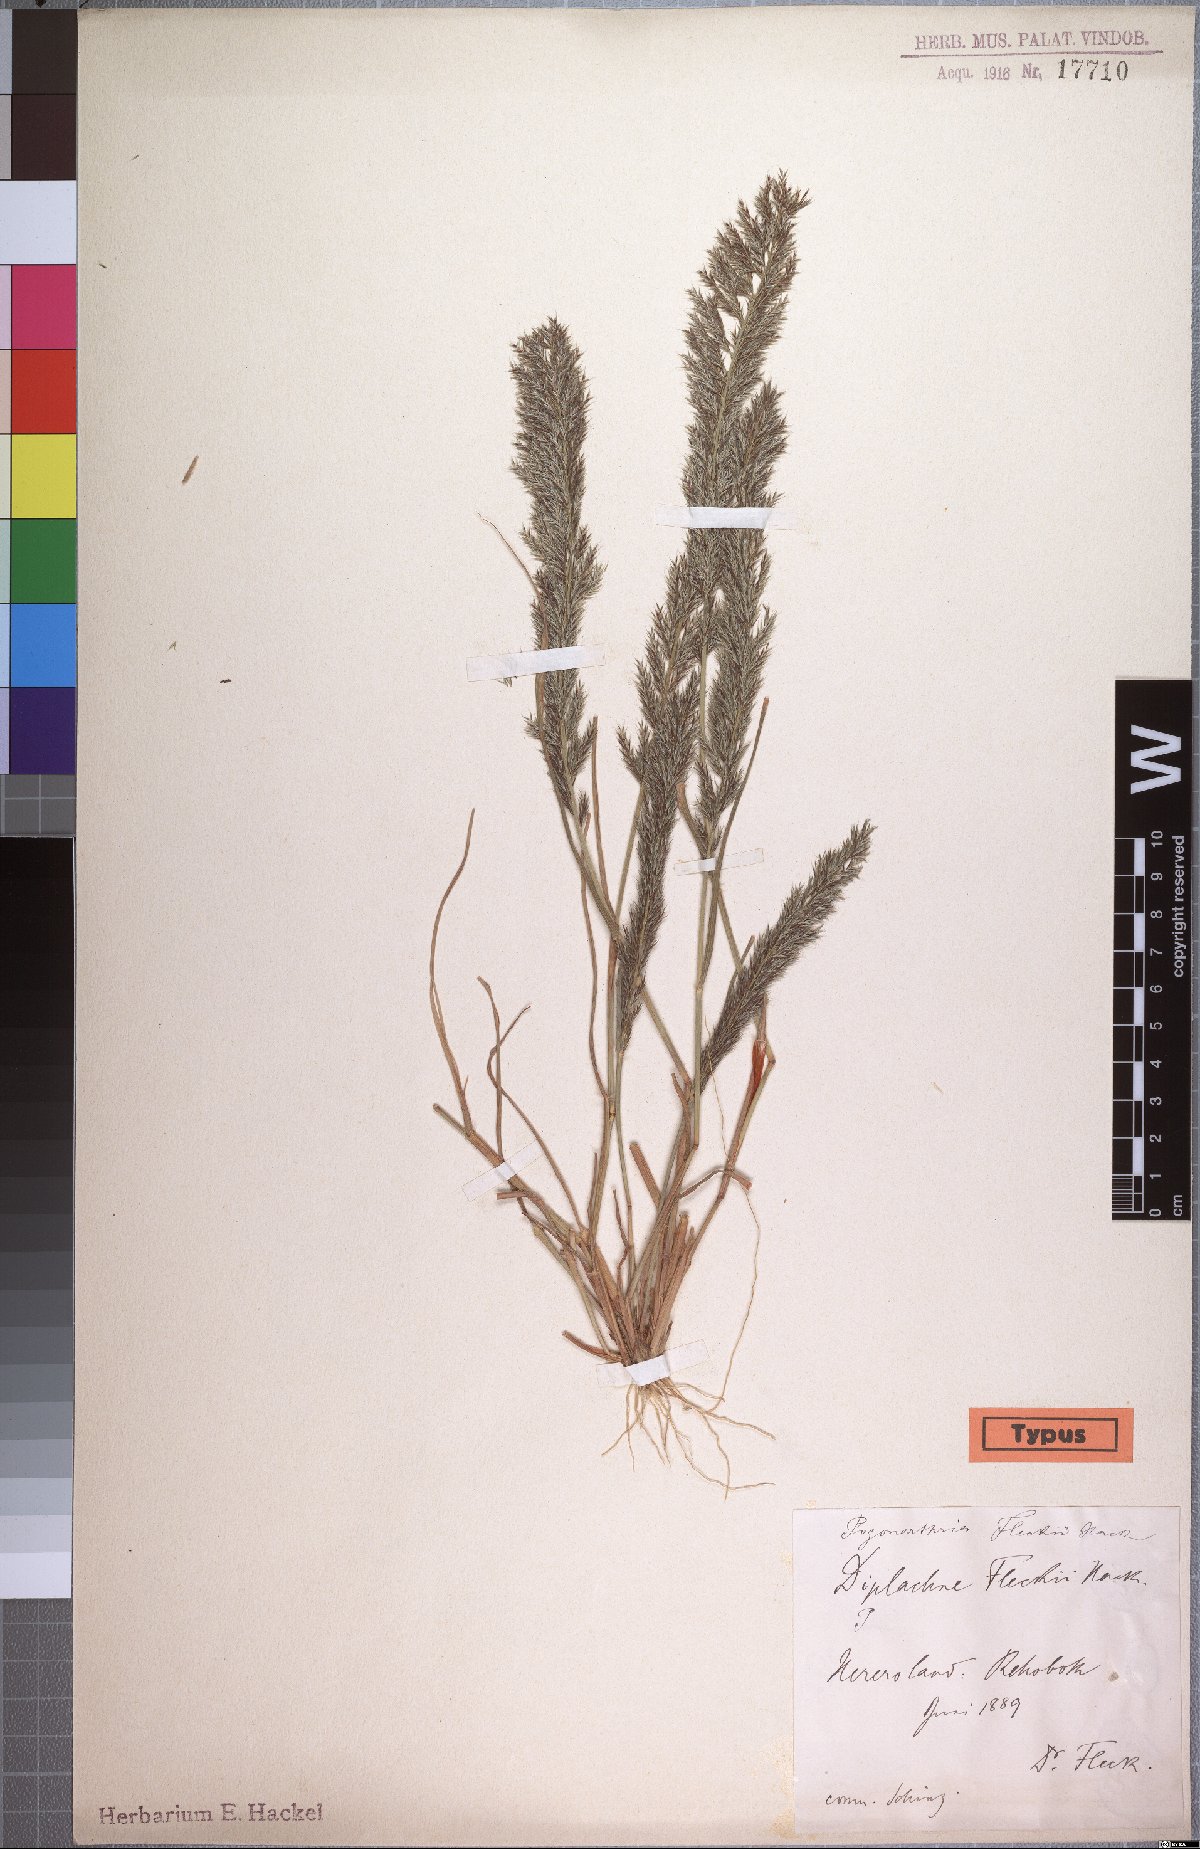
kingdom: Plantae
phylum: Tracheophyta
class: Liliopsida
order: Poales
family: Poaceae
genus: Pogonarthria
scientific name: Pogonarthria fleckii
